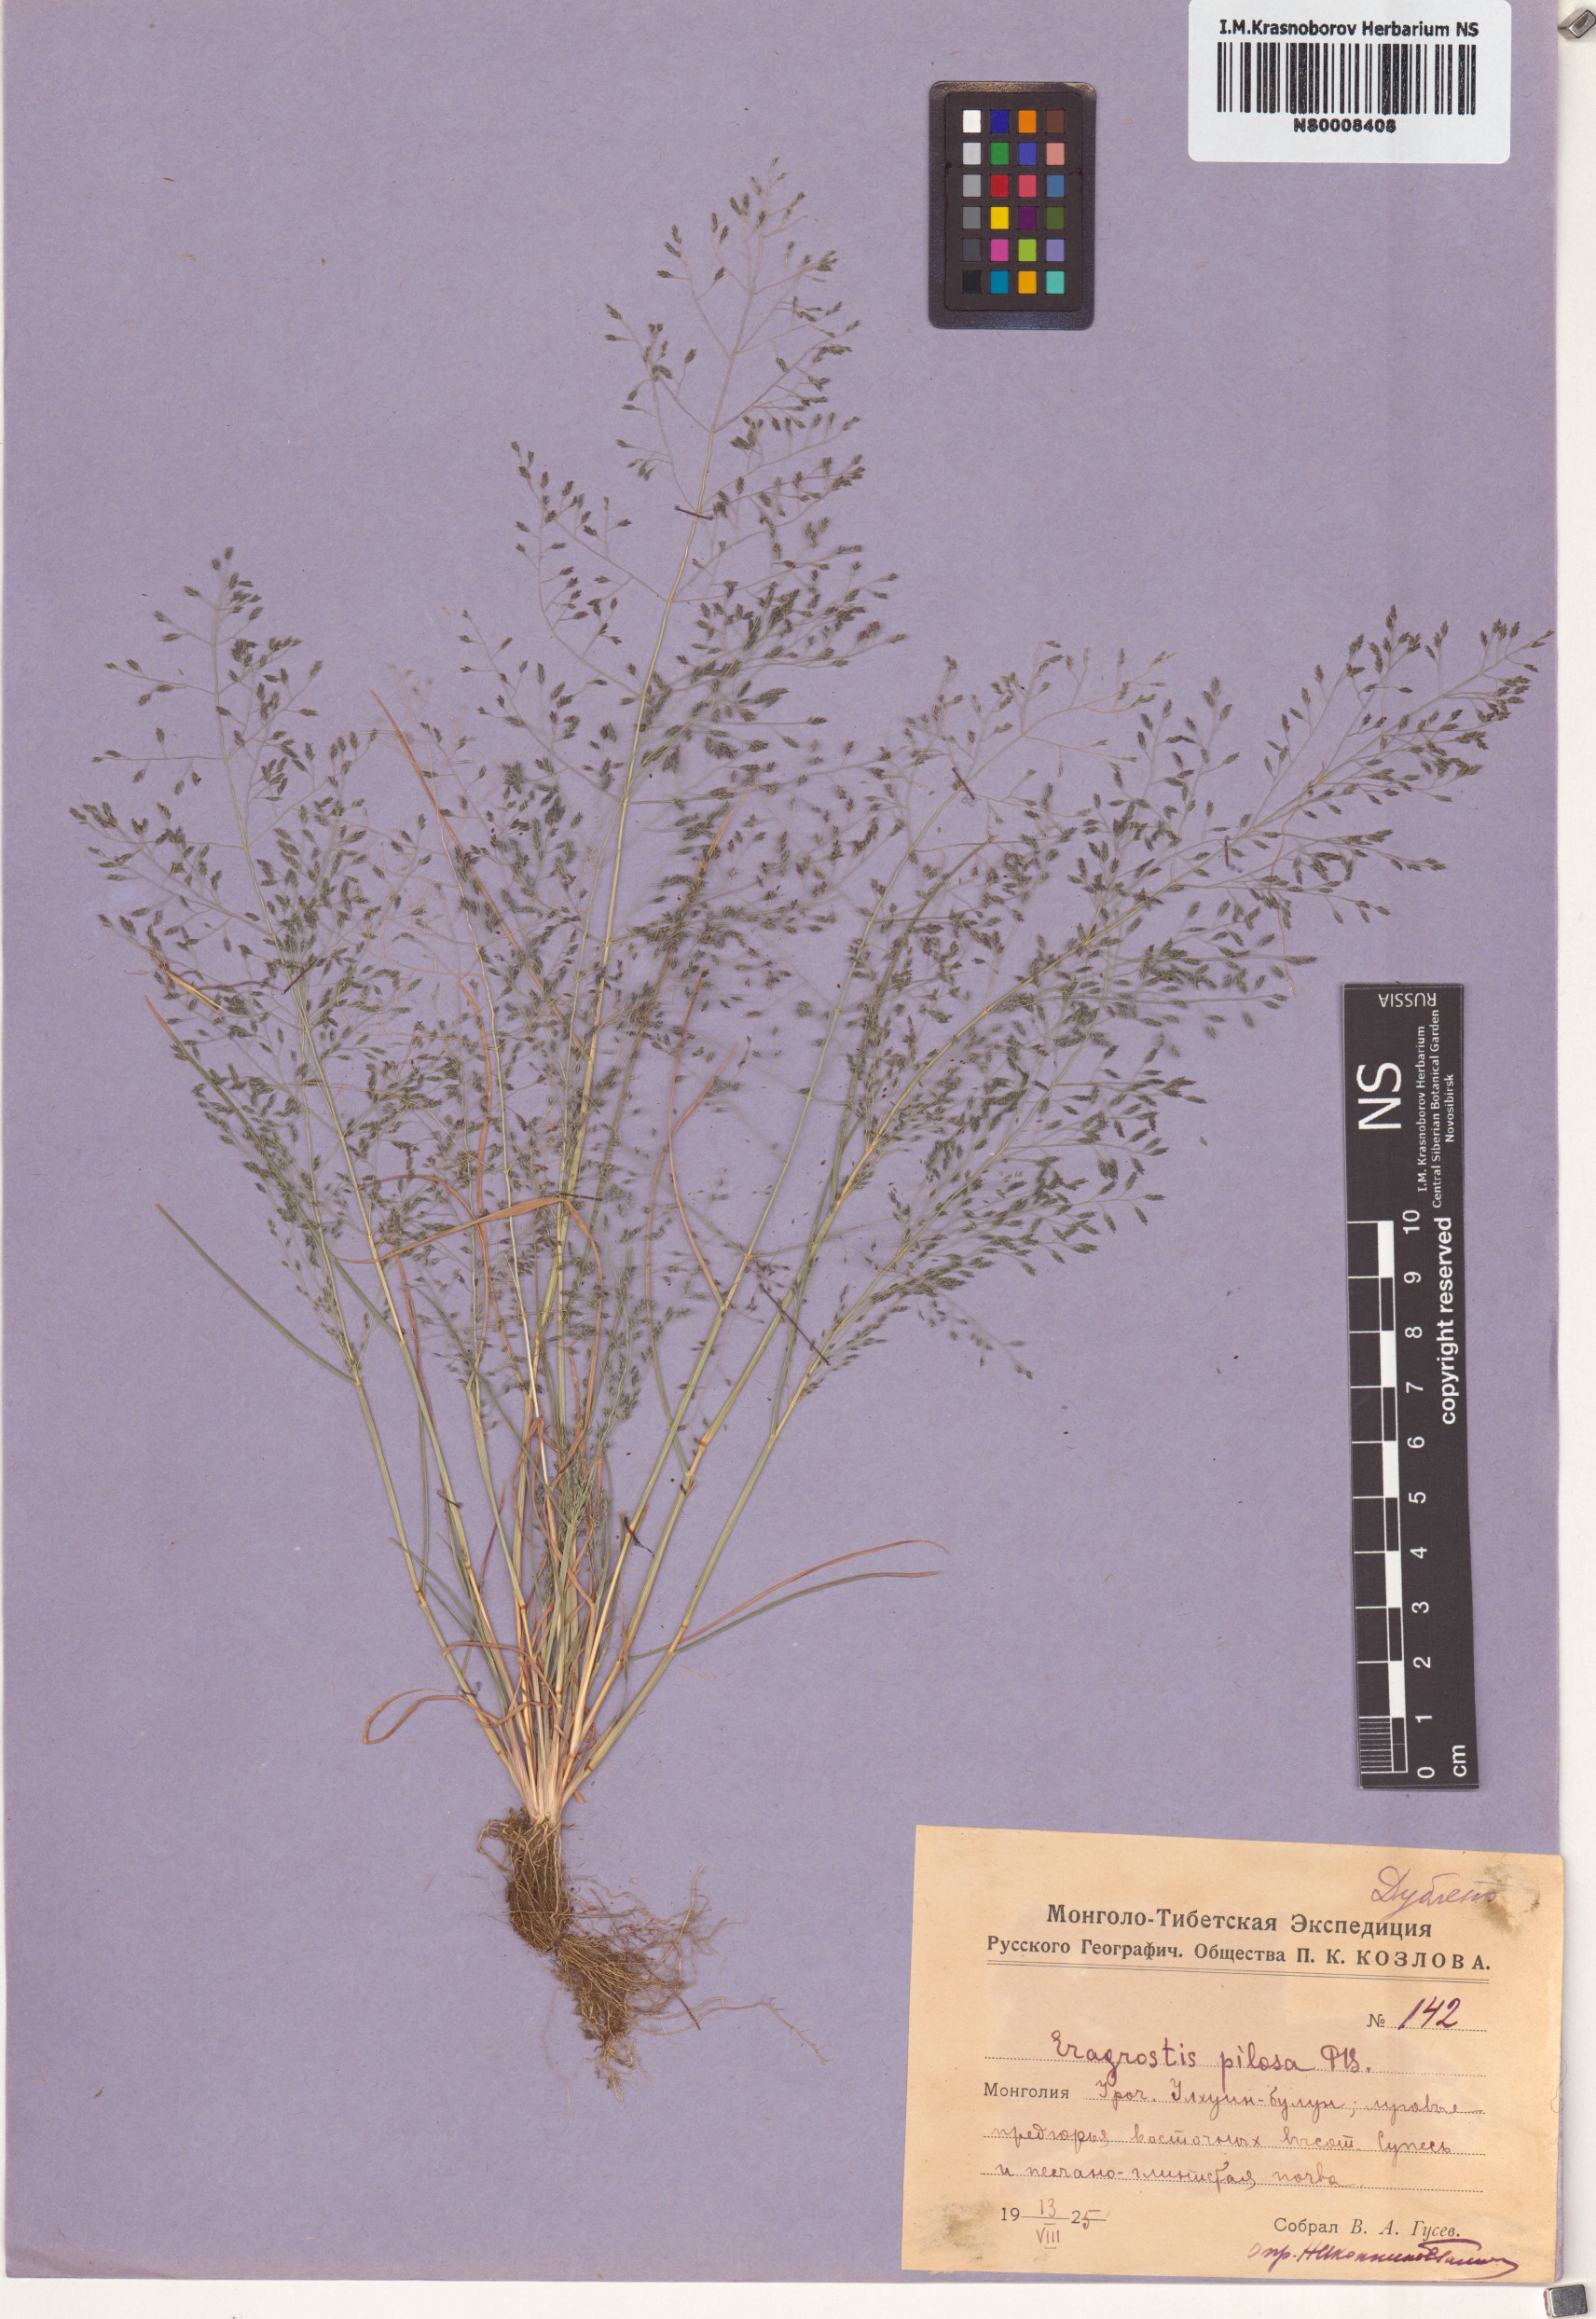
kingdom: Plantae
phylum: Tracheophyta
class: Liliopsida
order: Poales
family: Poaceae
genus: Eragrostis
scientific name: Eragrostis pilosa
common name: Indian lovegrass
